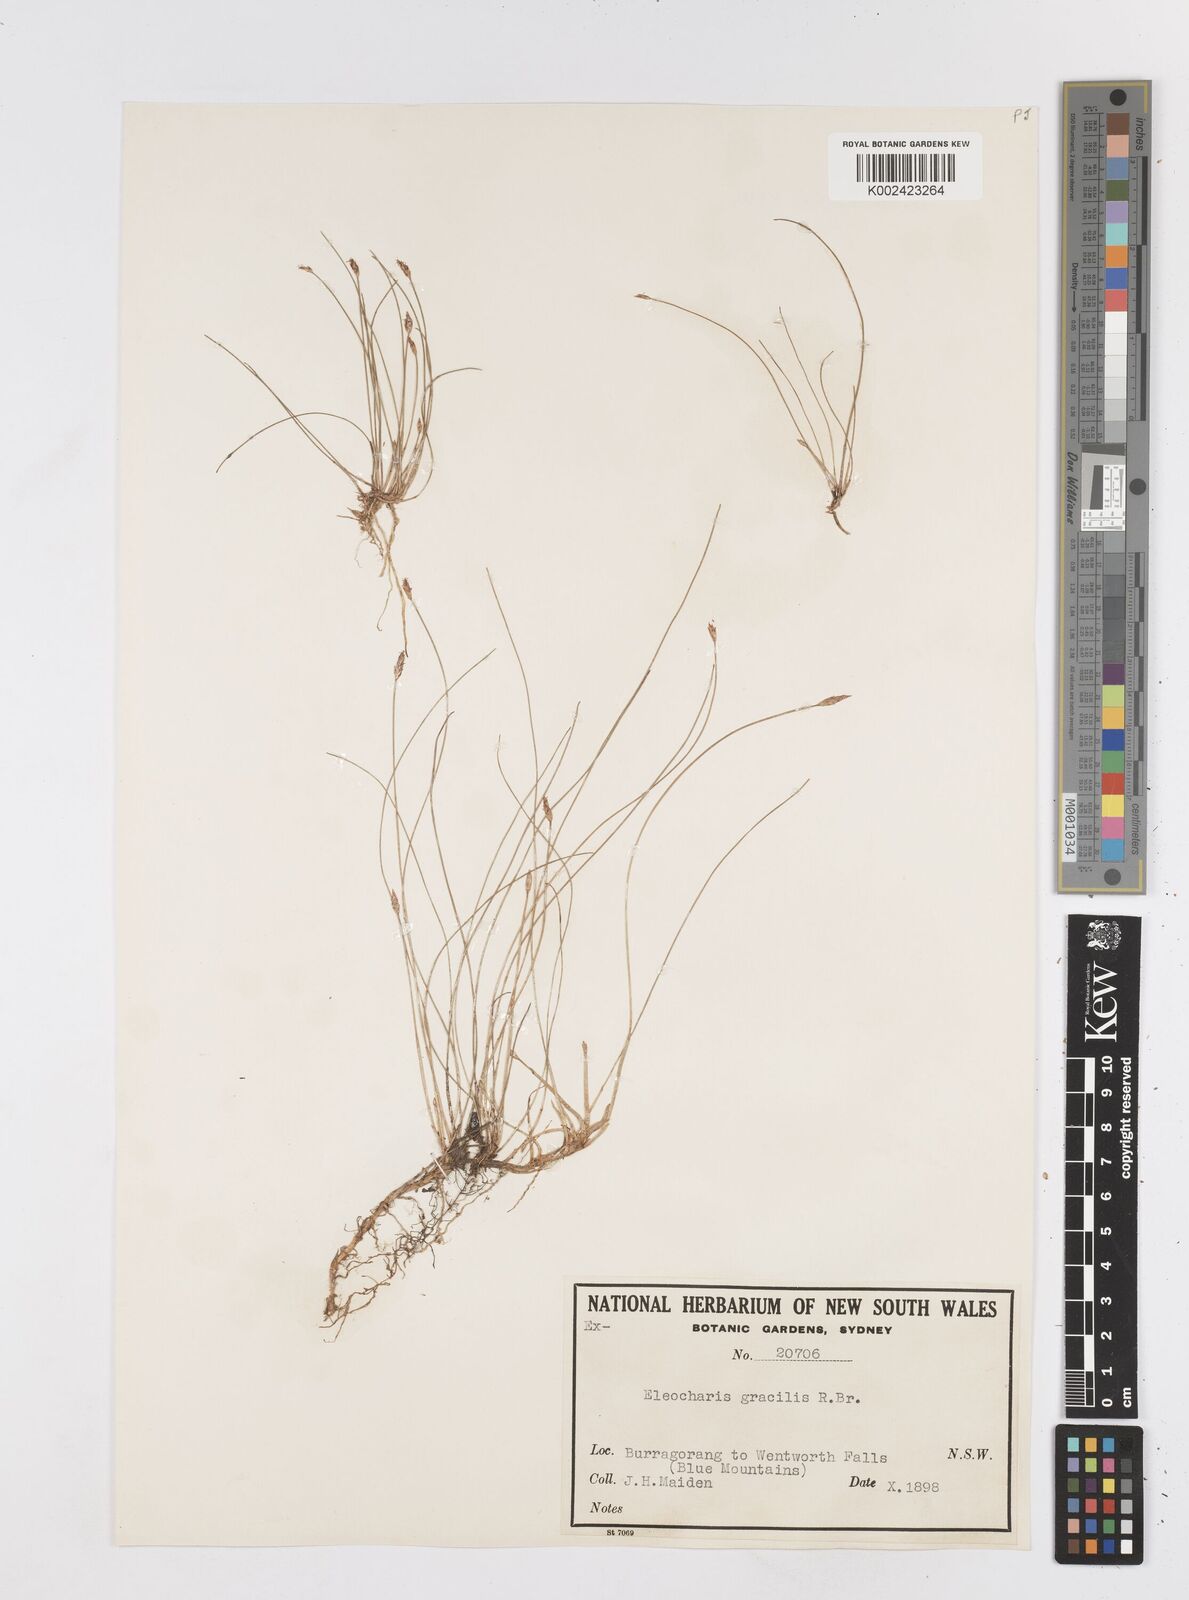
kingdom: Plantae
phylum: Tracheophyta
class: Liliopsida
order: Poales
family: Cyperaceae
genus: Eleocharis
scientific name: Eleocharis multicaulis
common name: Many-stalked spike-rush
